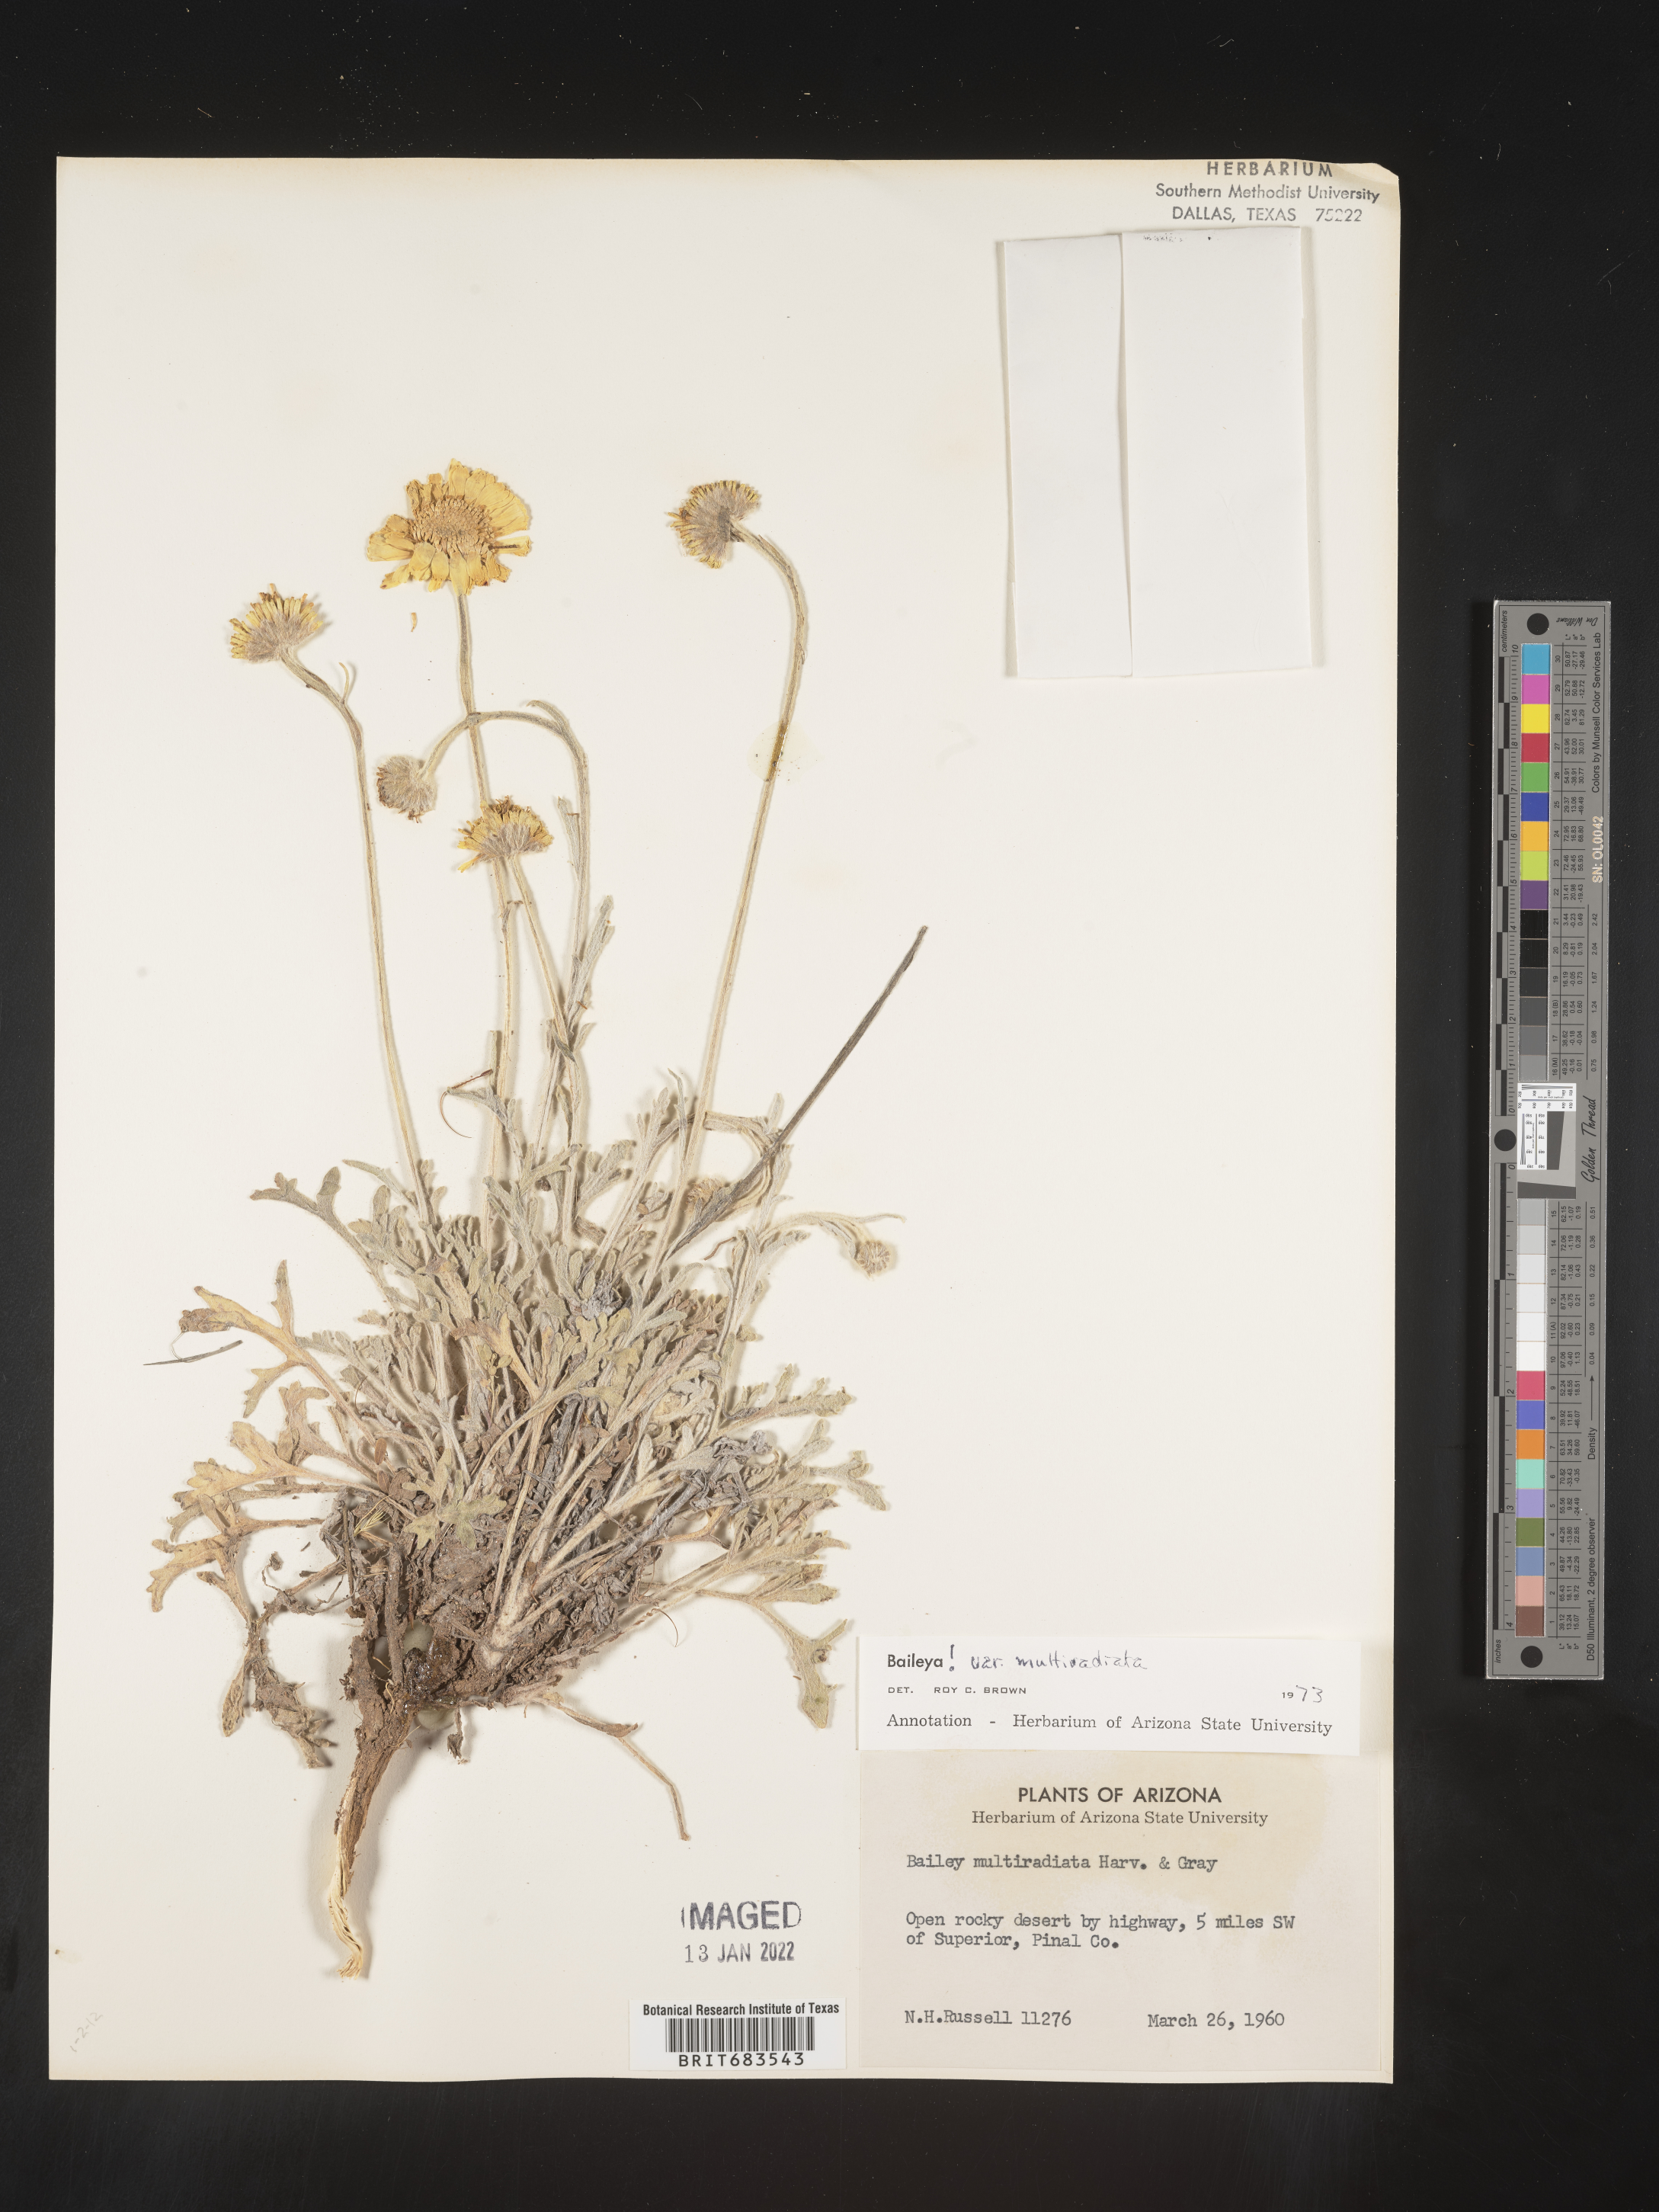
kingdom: Plantae
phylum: Tracheophyta
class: Magnoliopsida
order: Asterales
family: Asteraceae
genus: Baileya
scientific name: Baileya multiradiata
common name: Desert-marigold
